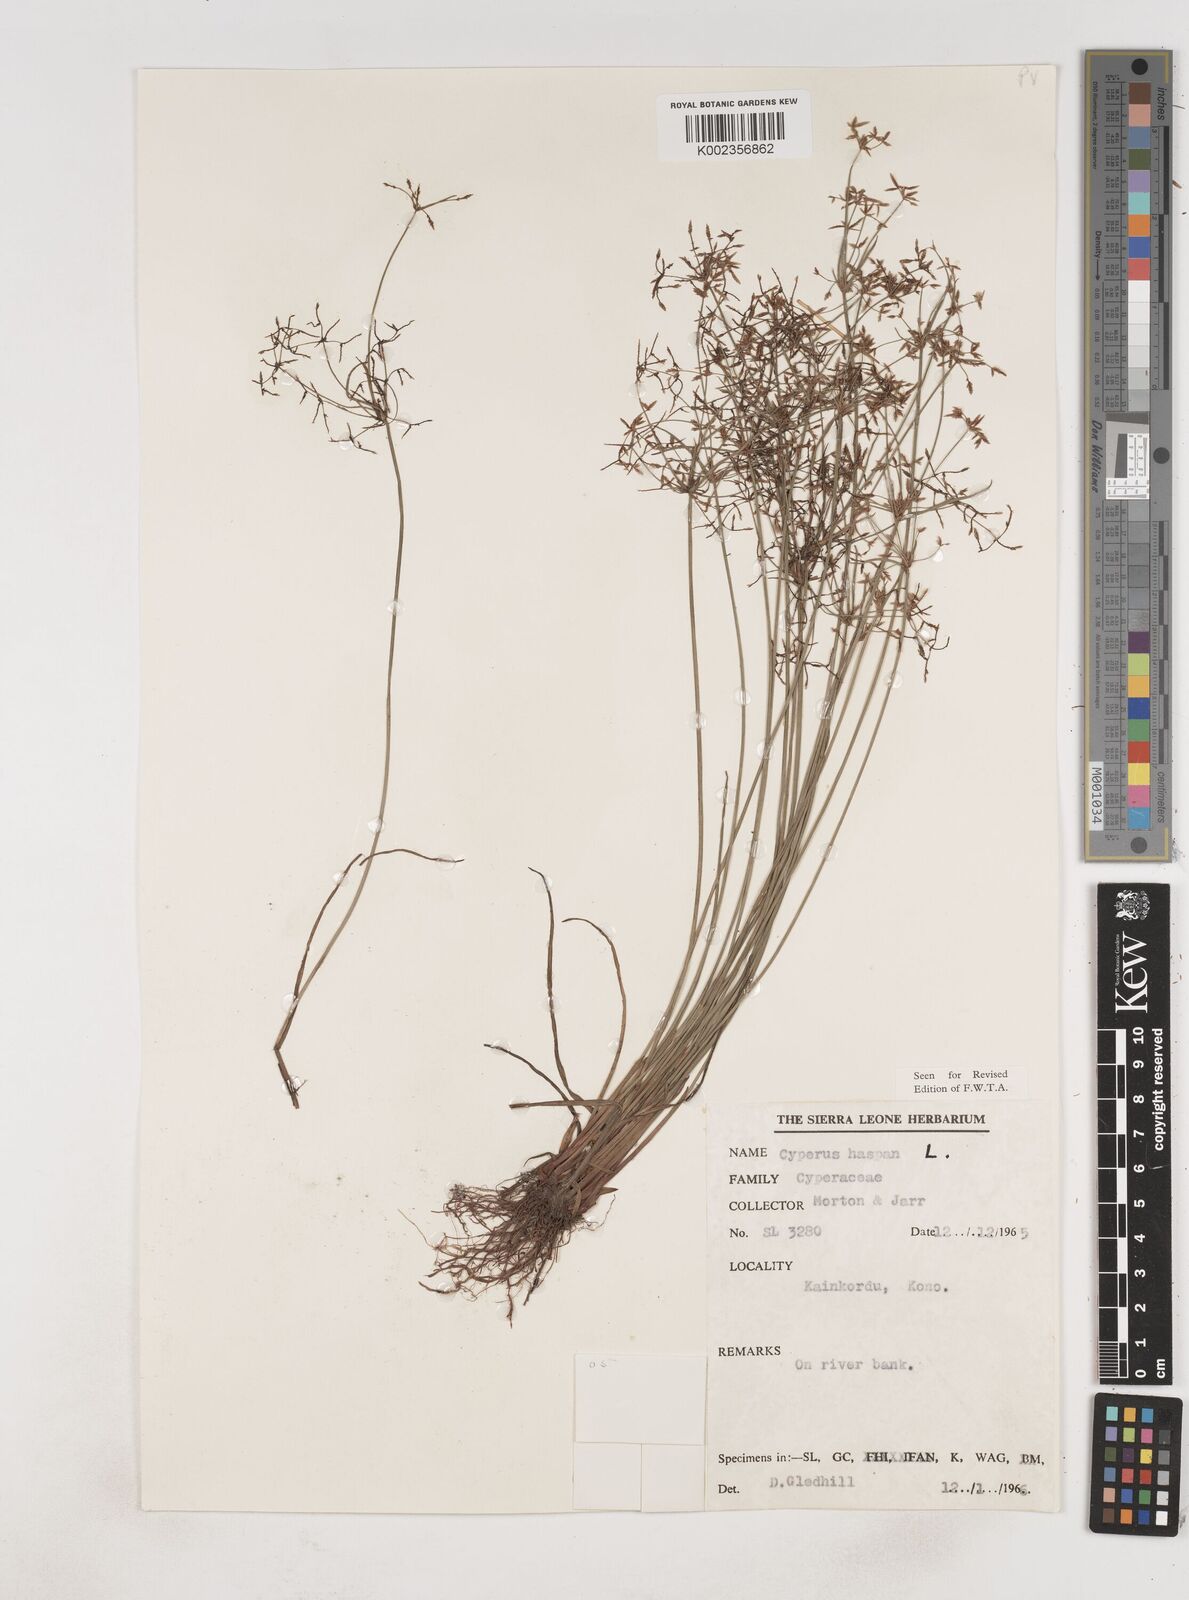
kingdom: Plantae
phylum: Tracheophyta
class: Liliopsida
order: Poales
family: Cyperaceae
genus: Cyperus
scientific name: Cyperus haspan
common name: Haspan flatsedge
